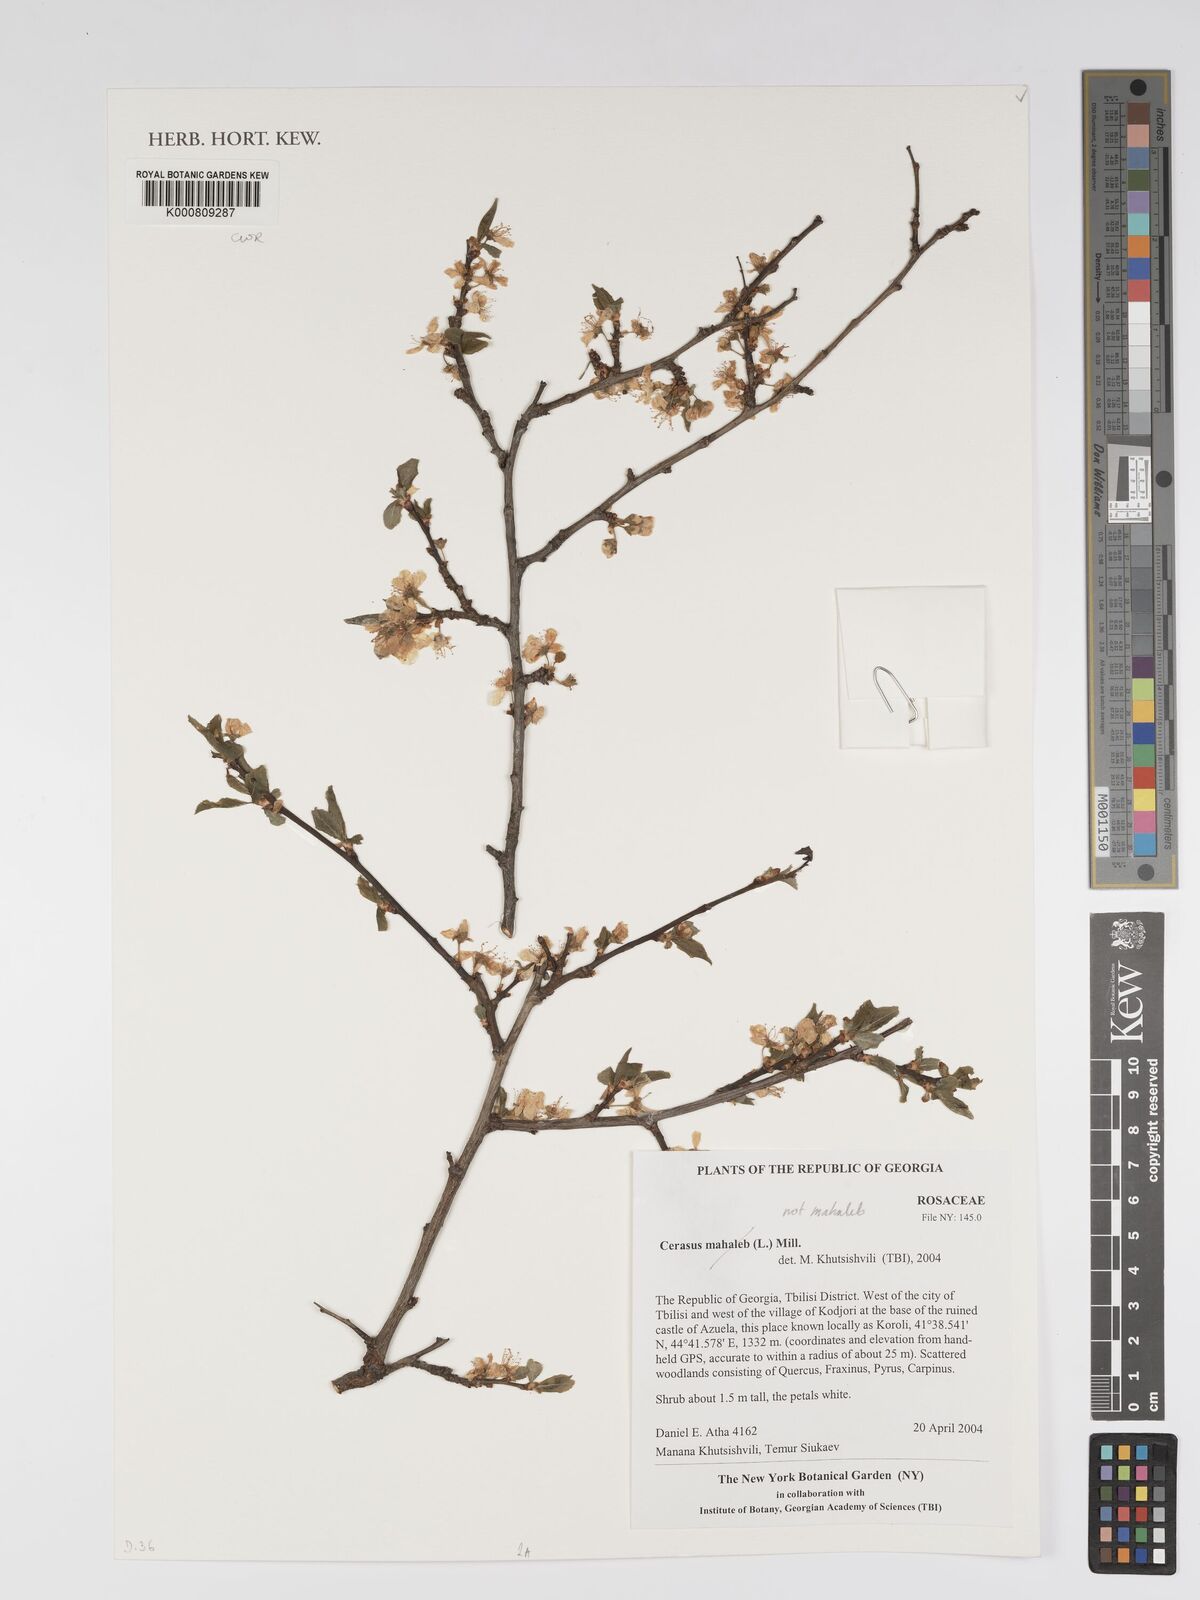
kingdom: Plantae
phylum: Tracheophyta
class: Magnoliopsida
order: Rosales
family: Rosaceae
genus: Prunus
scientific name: Prunus mahaleb
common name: Mahaleb cherry
